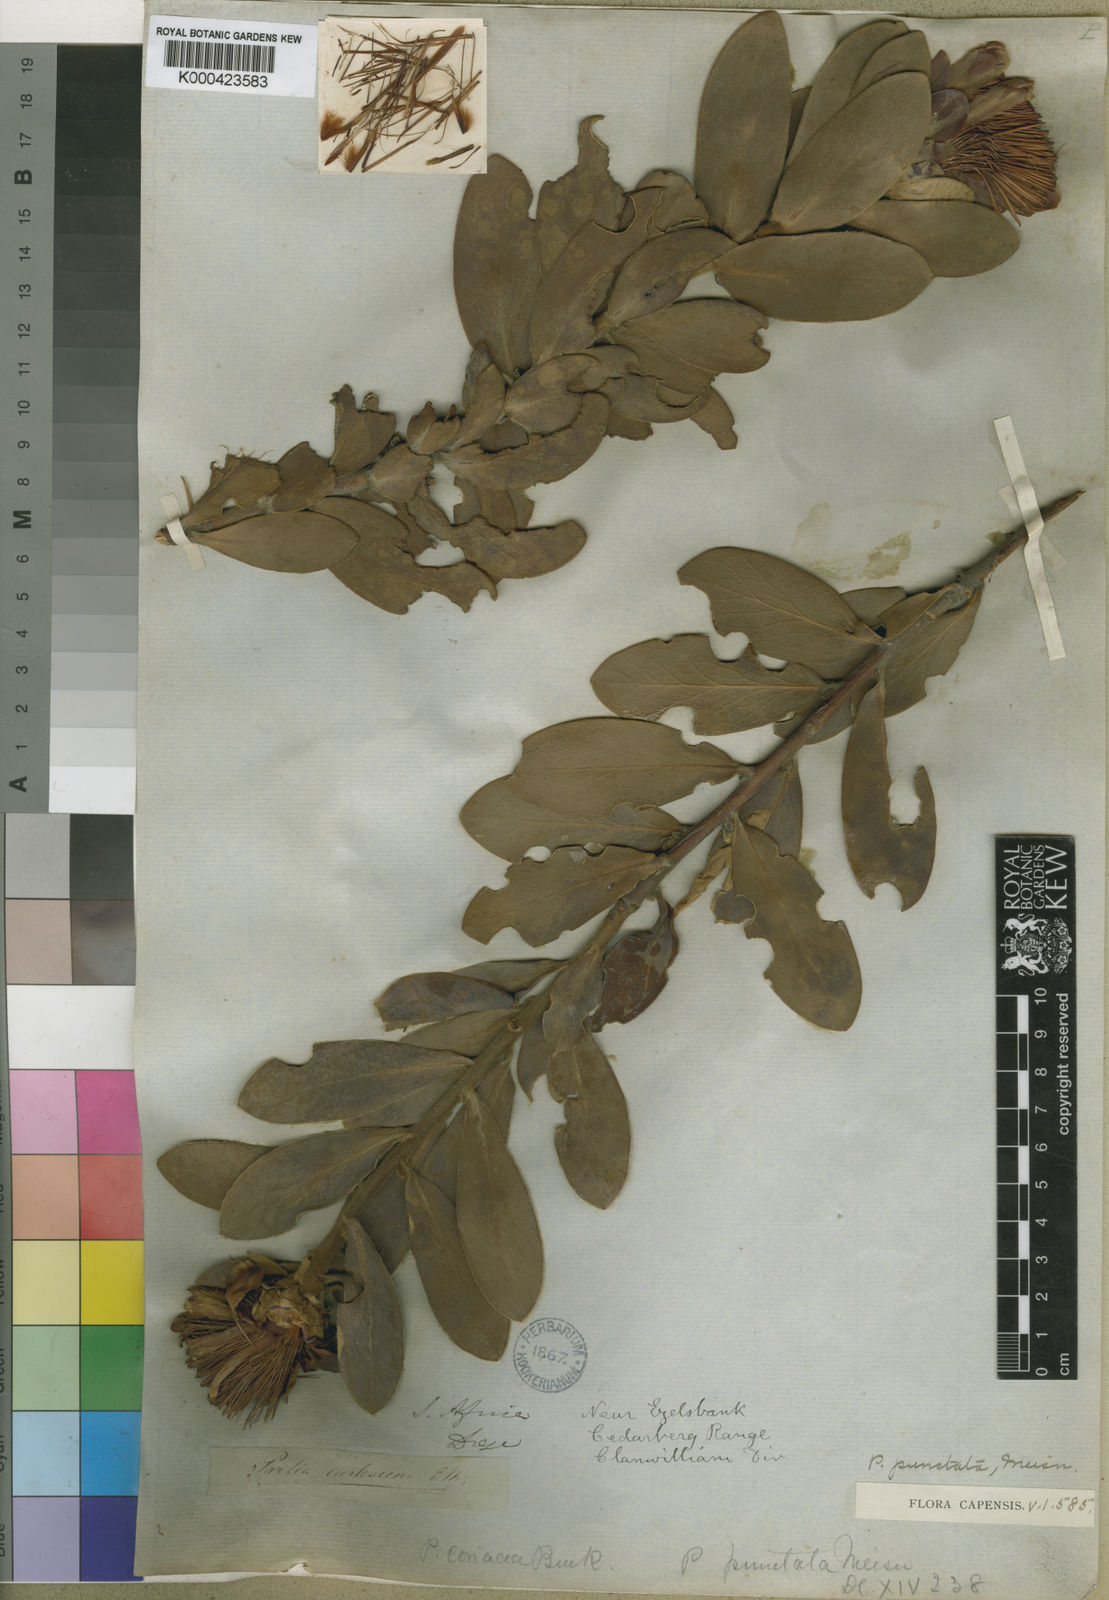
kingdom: Plantae
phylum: Tracheophyta
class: Magnoliopsida
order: Proteales
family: Proteaceae
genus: Protea
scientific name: Protea punctata
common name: Water sugarbush
